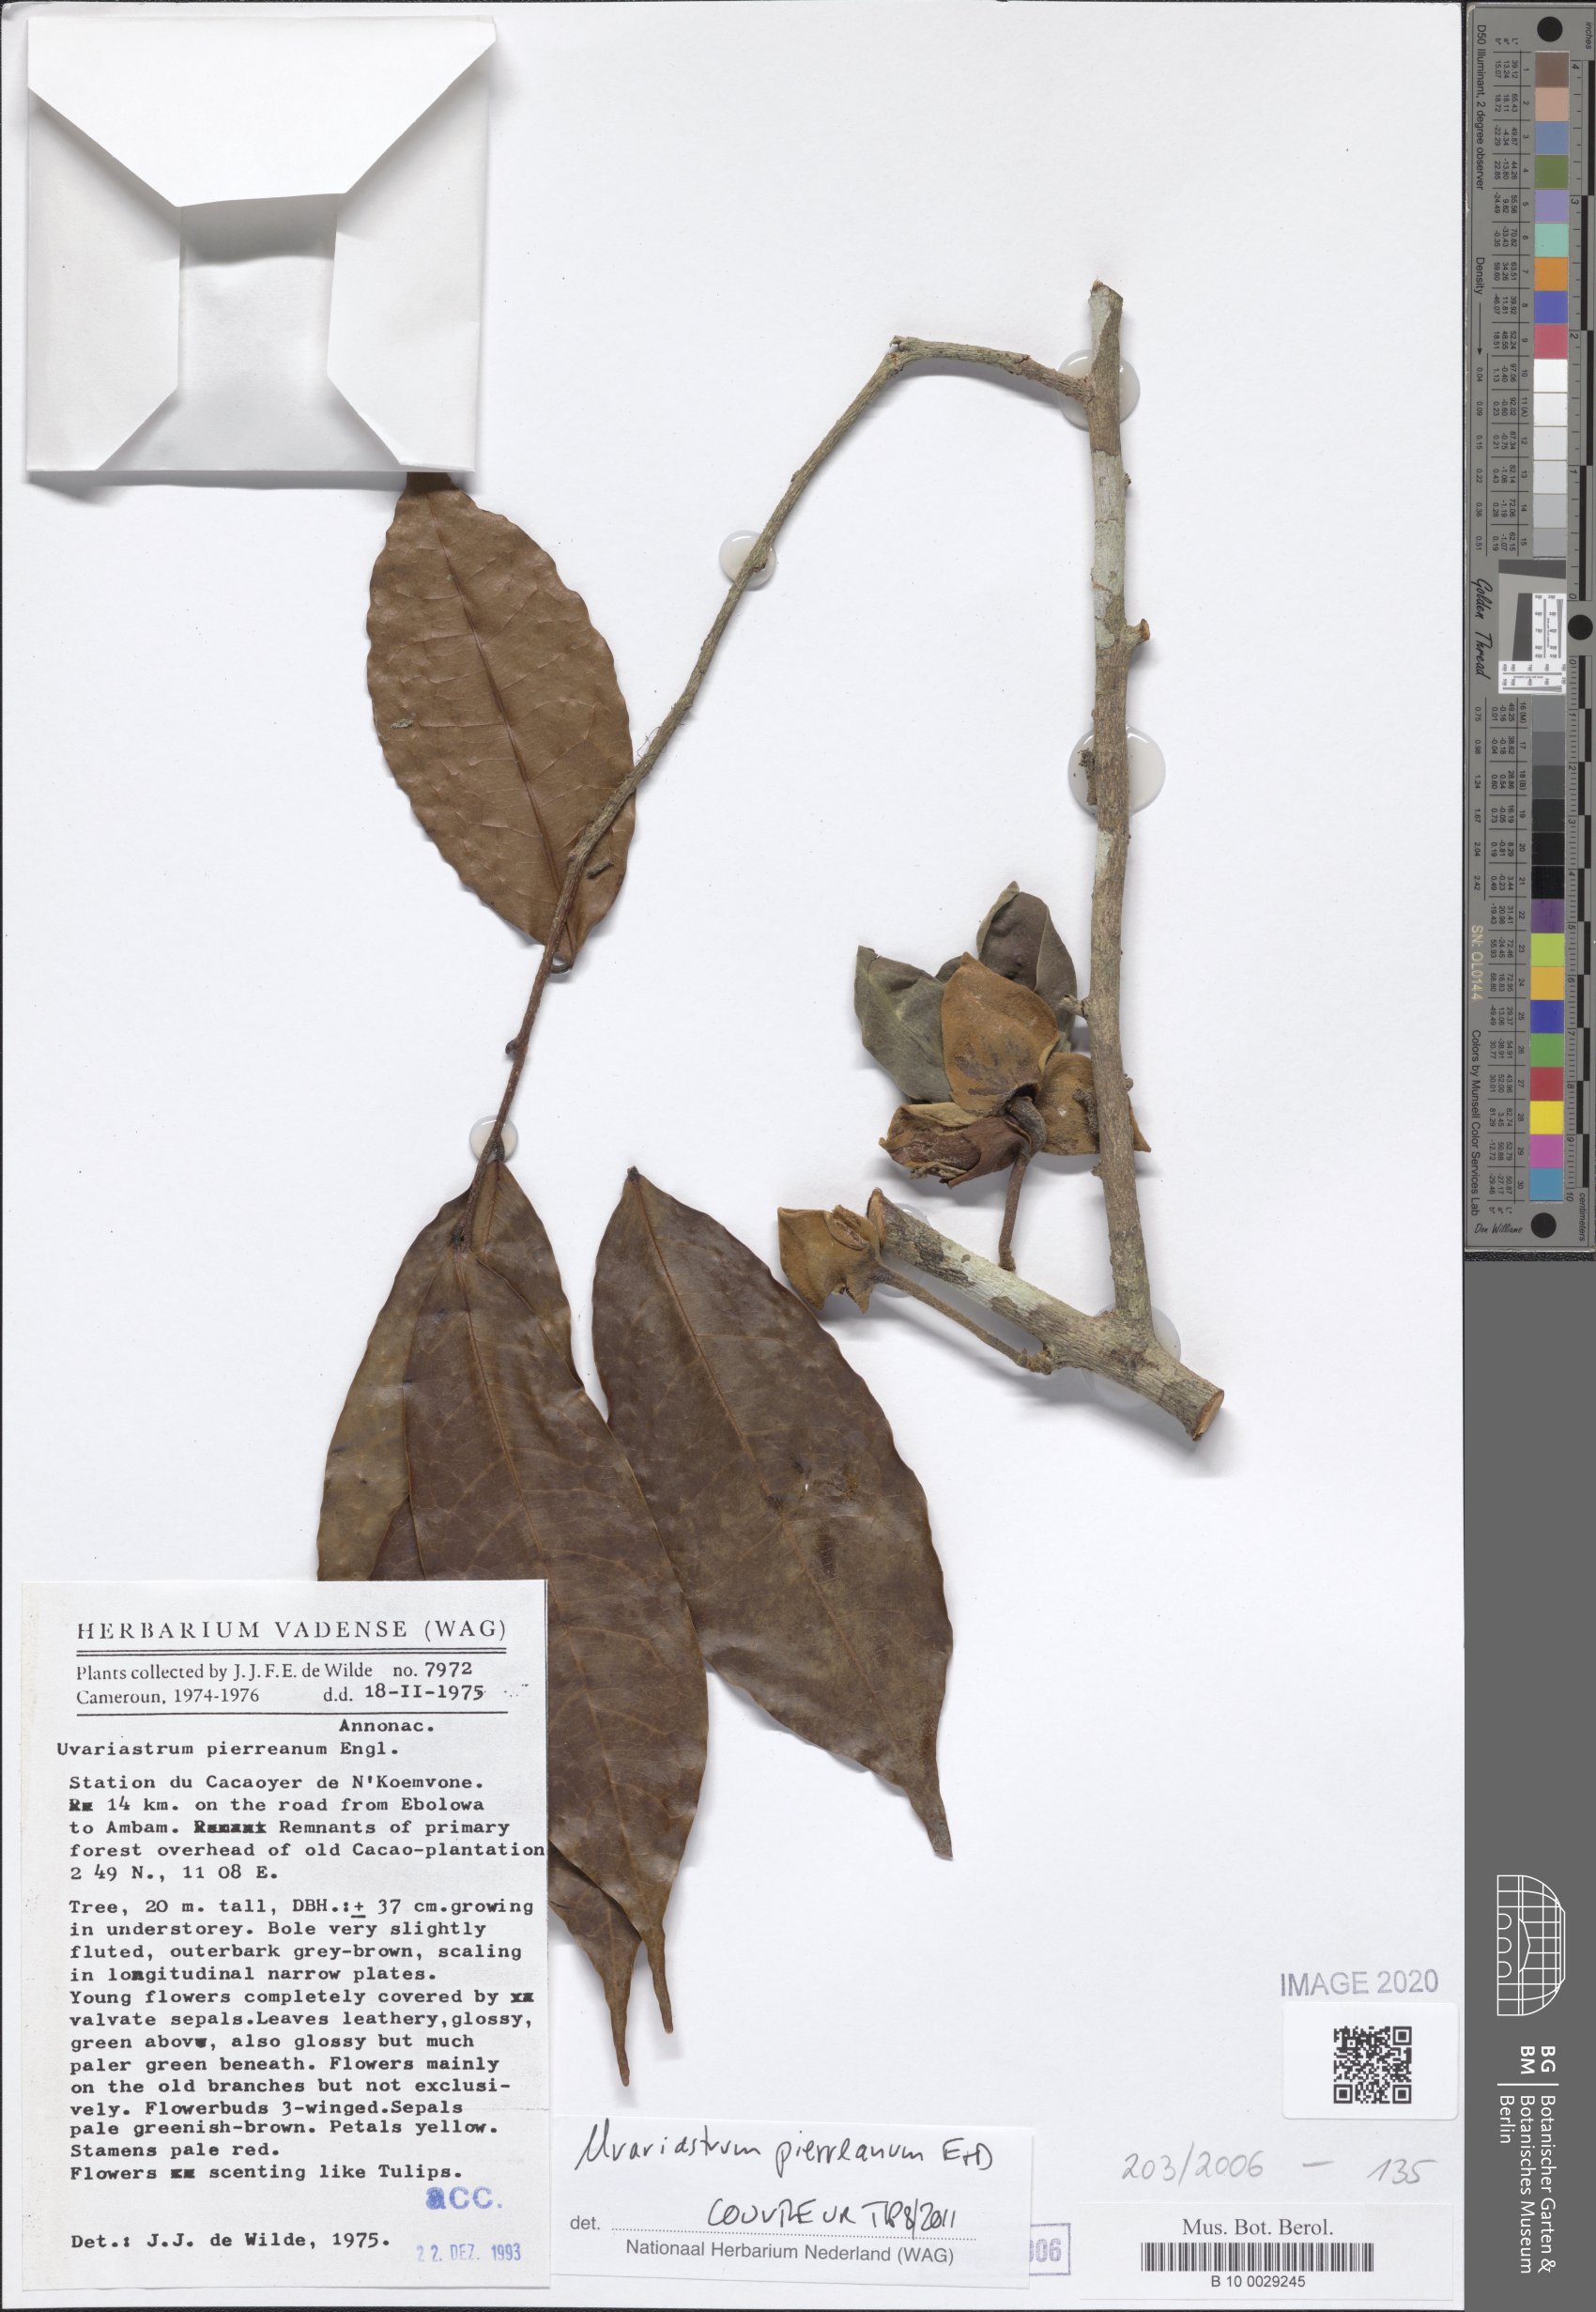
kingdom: Plantae
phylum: Tracheophyta
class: Magnoliopsida
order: Magnoliales
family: Annonaceae
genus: Uvariastrum
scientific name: Uvariastrum pierreanum
